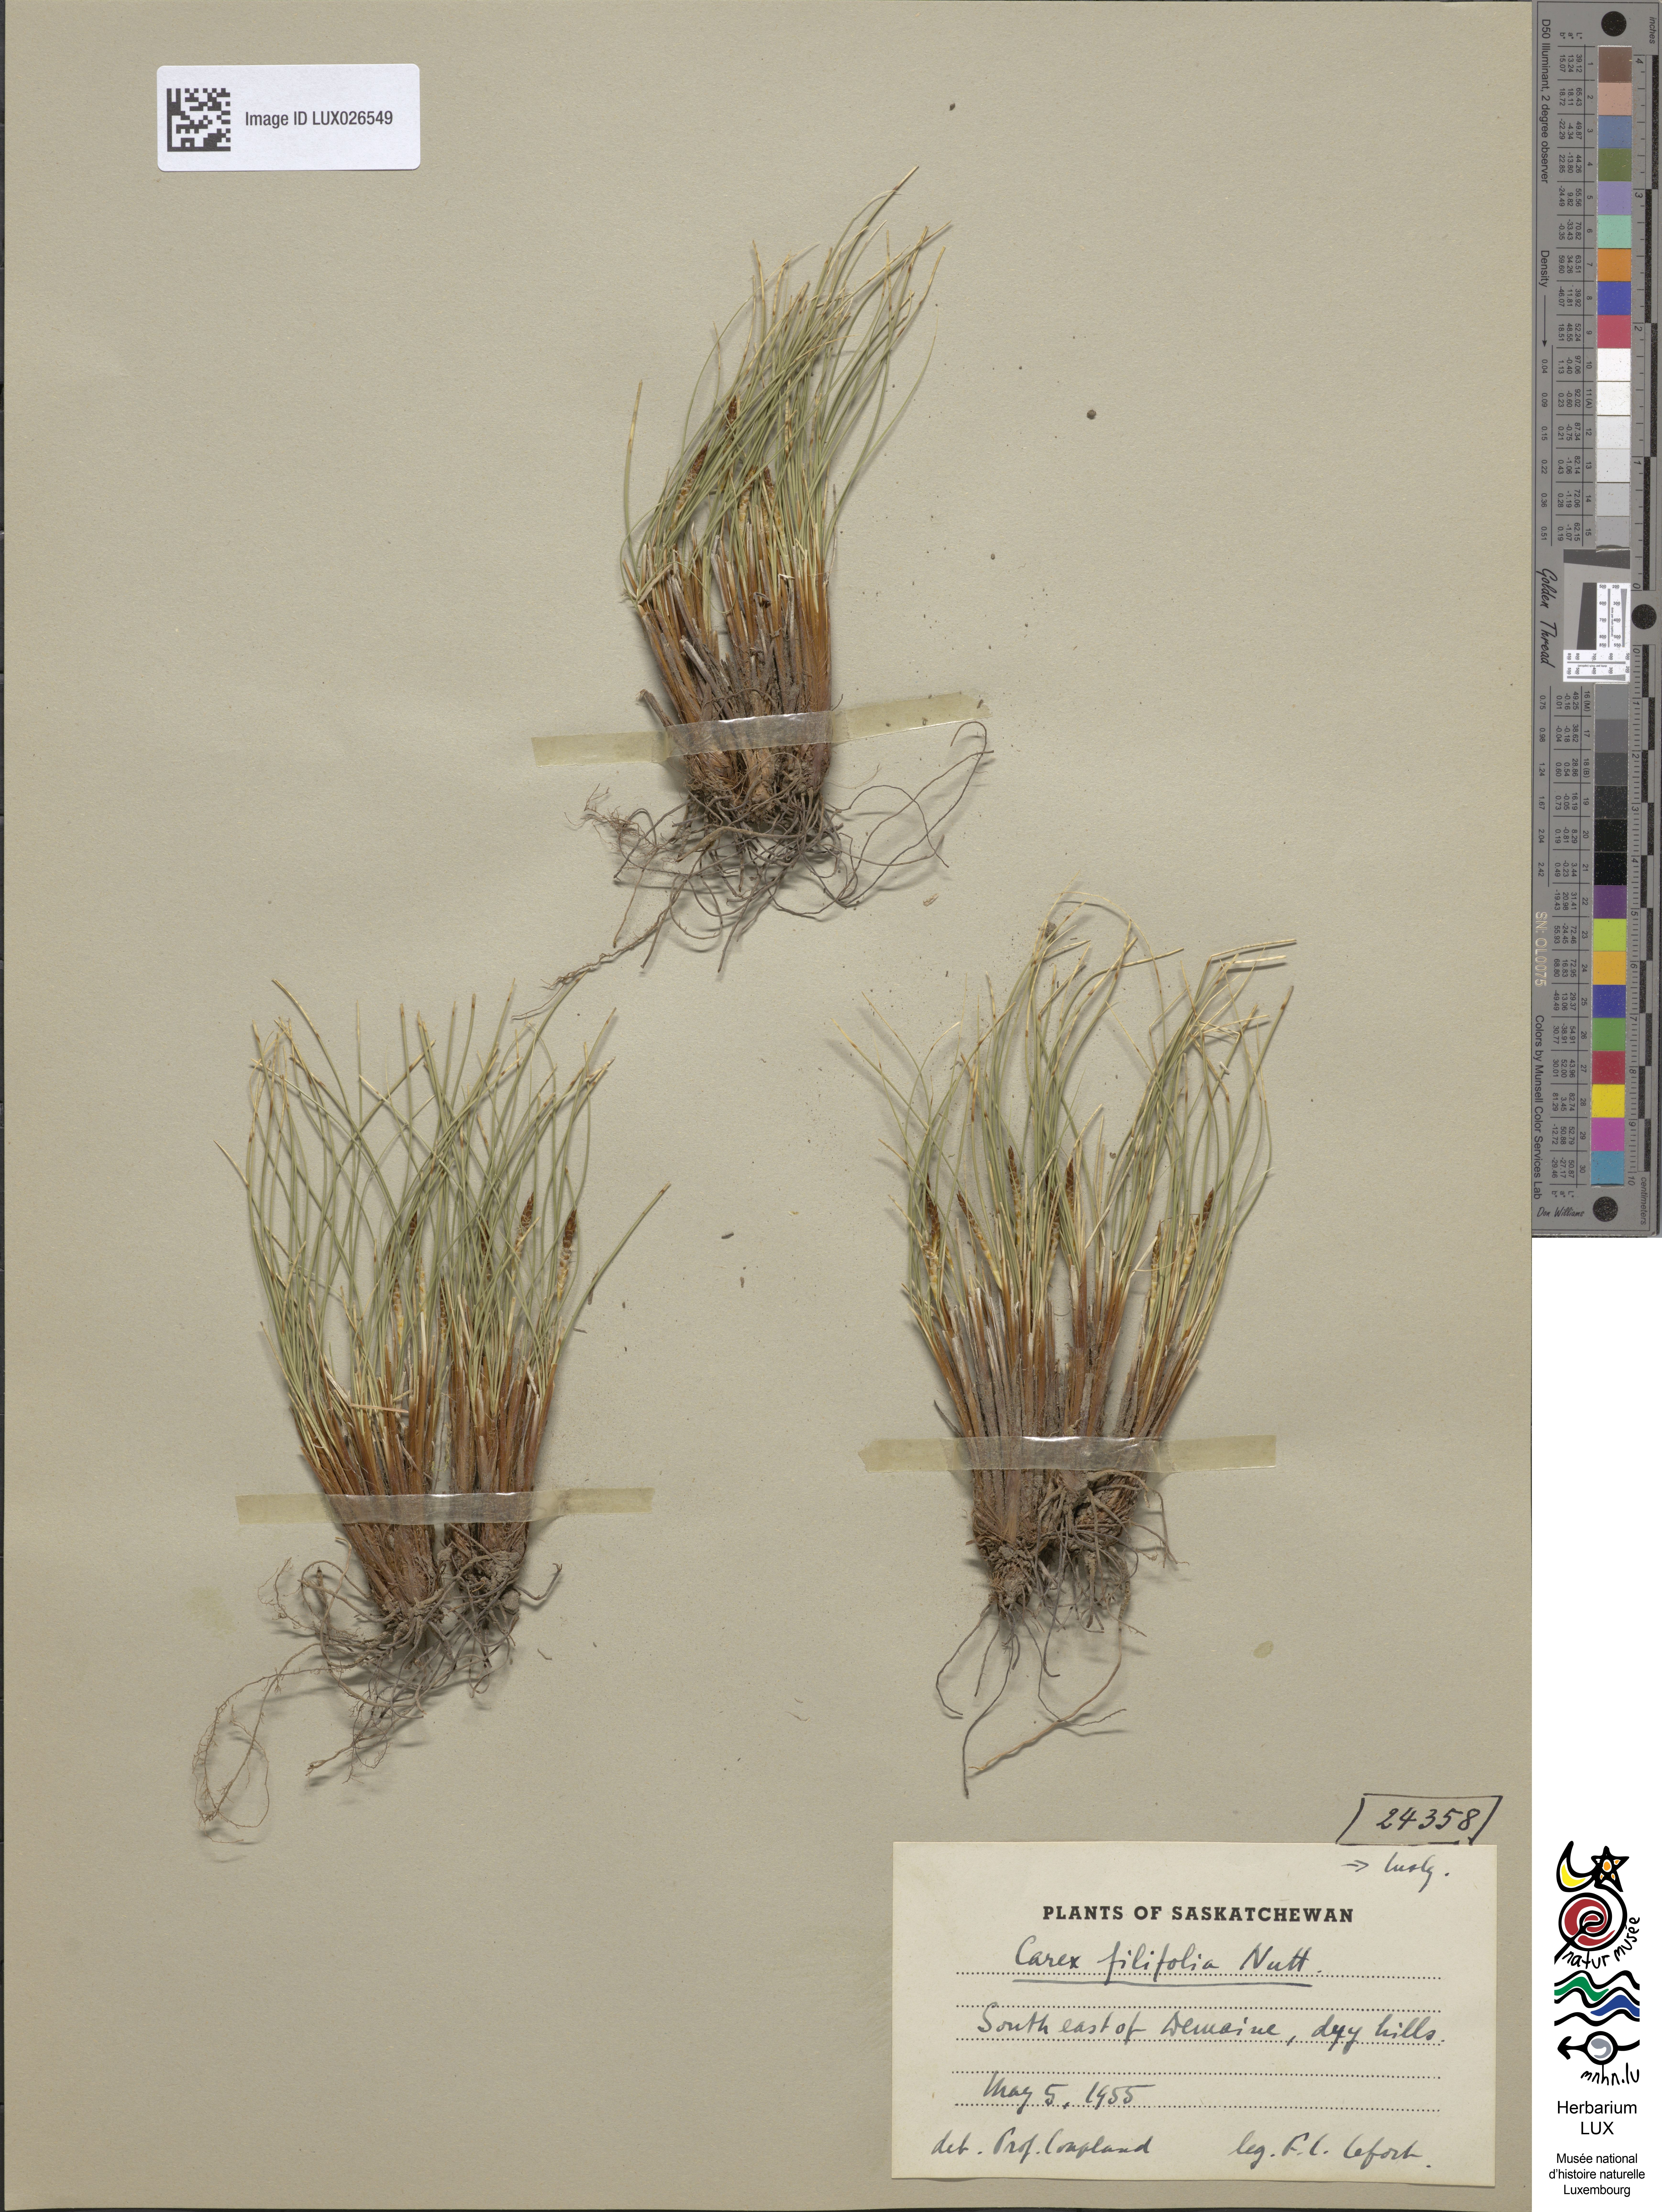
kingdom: Plantae
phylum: Tracheophyta
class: Liliopsida
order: Poales
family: Cyperaceae
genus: Carex
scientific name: Carex filifolia
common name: Threadleaf sedge
